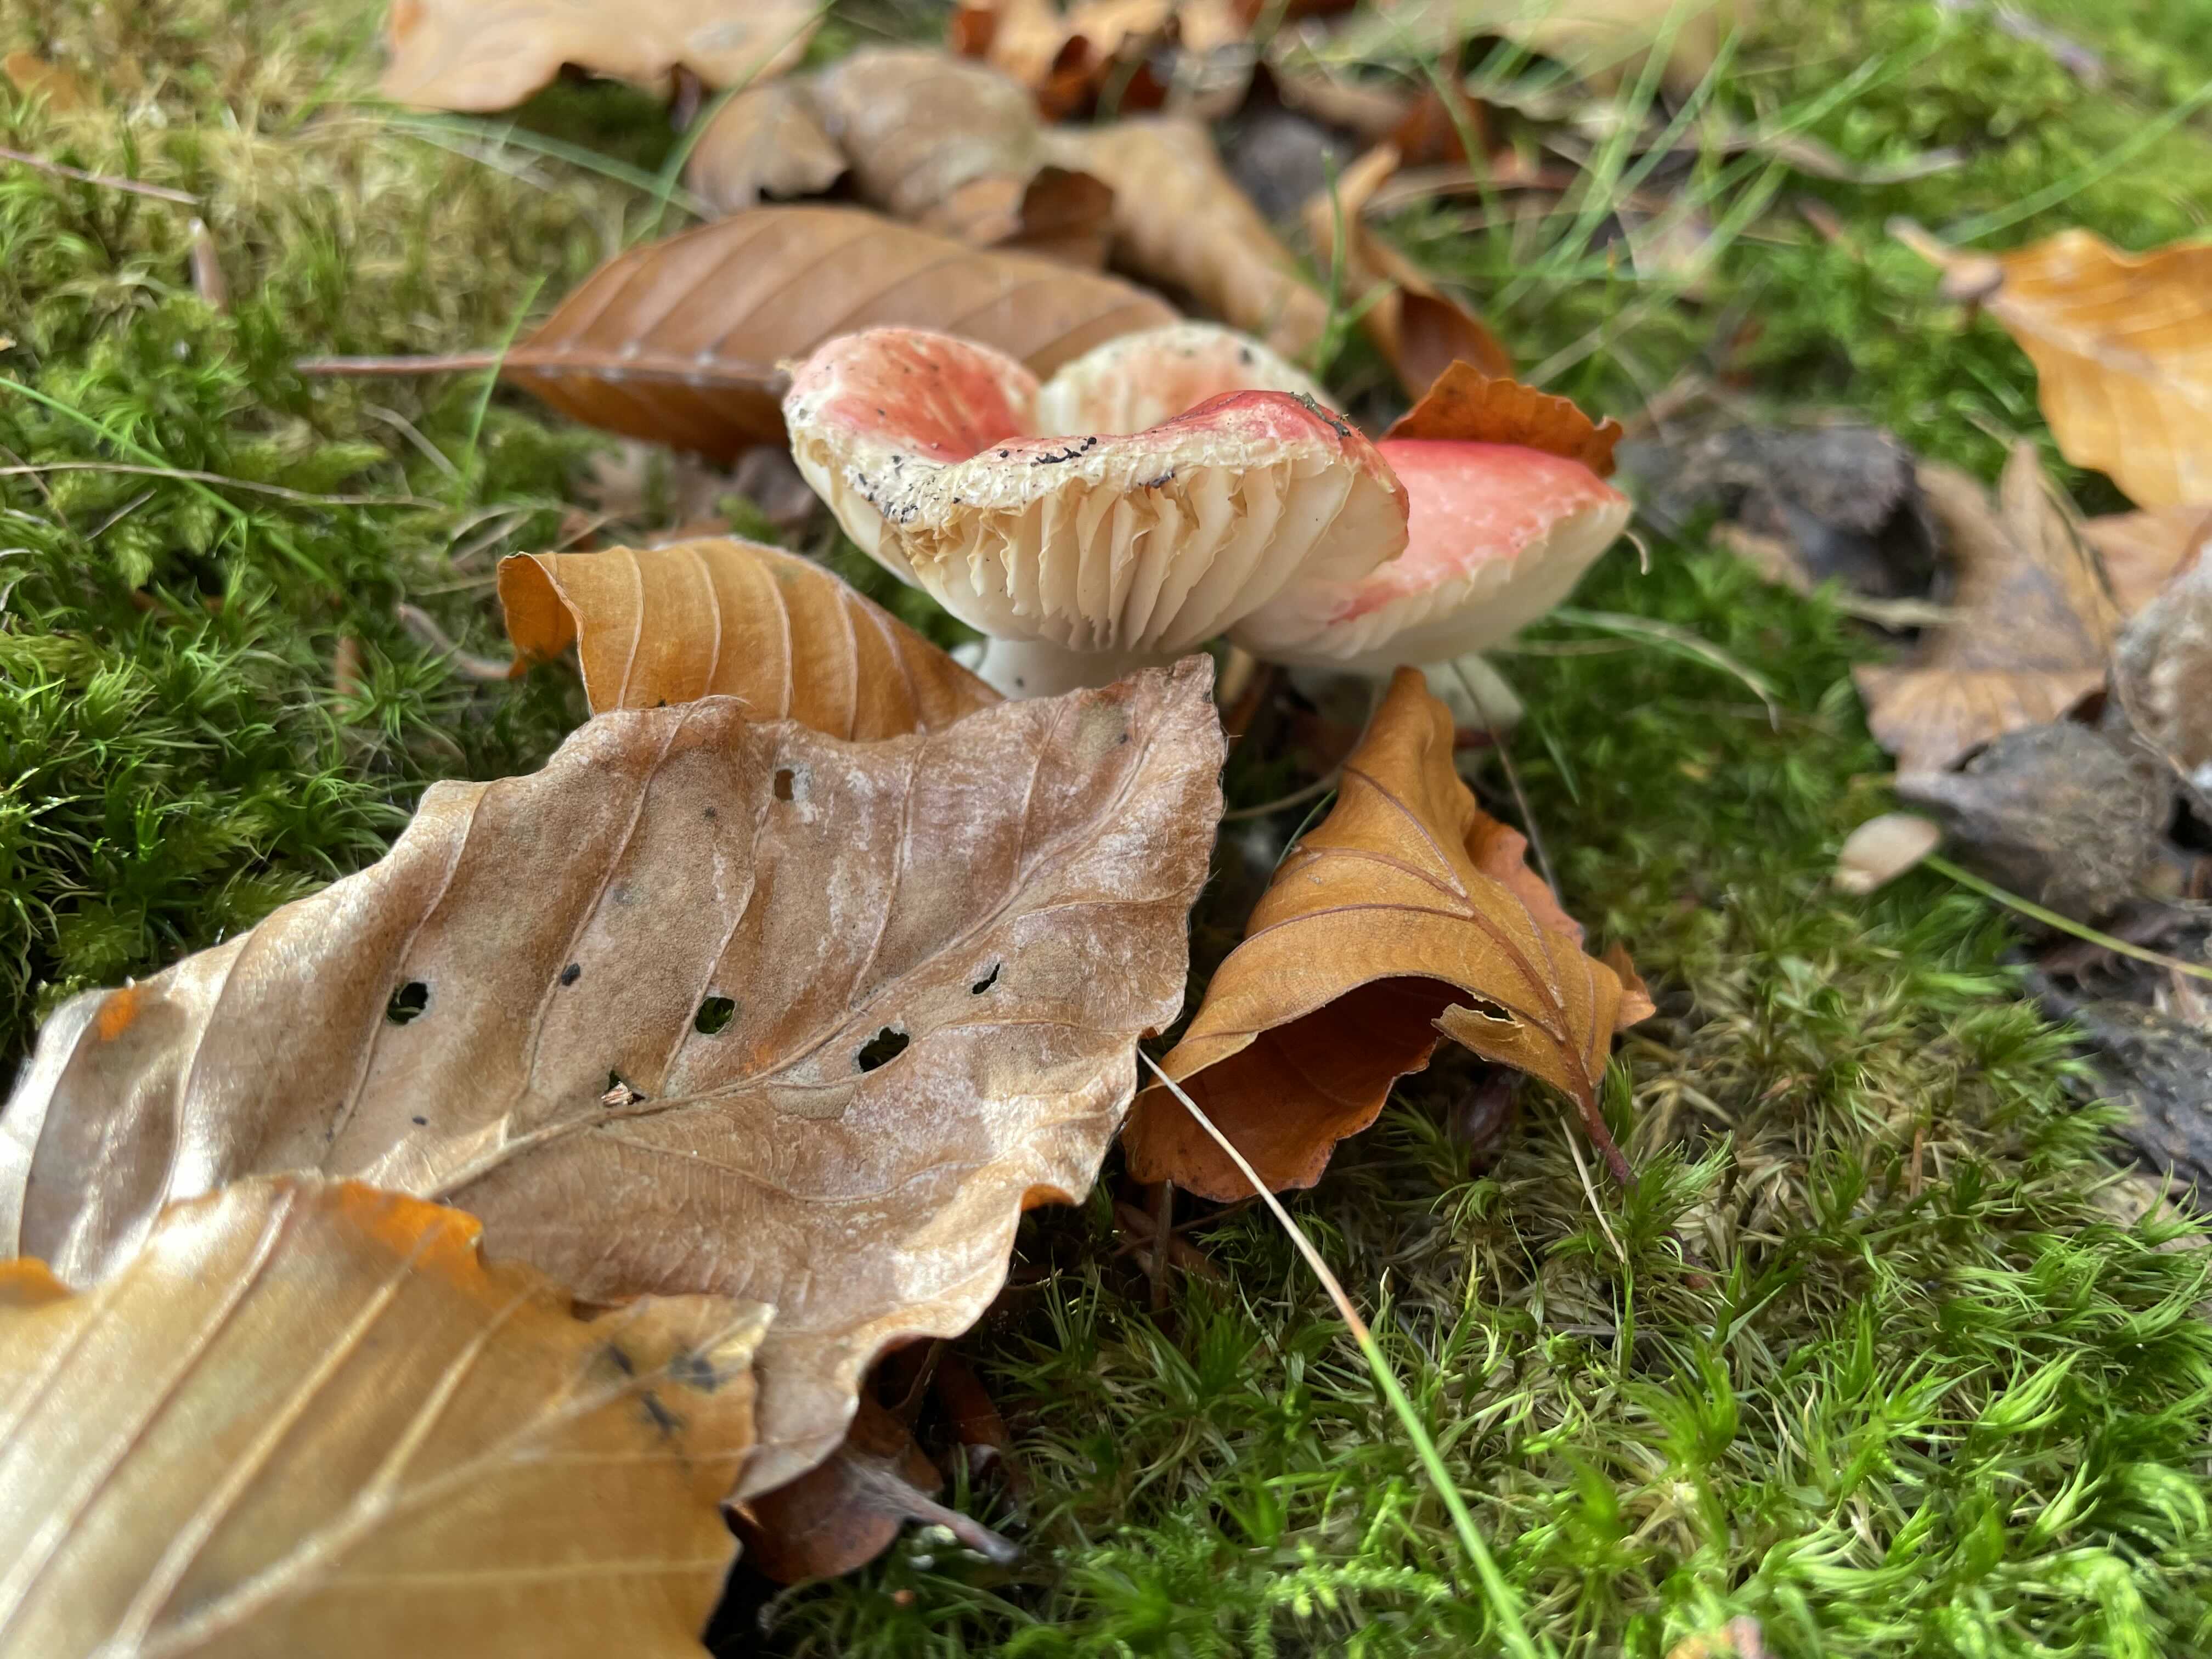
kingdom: Fungi
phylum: Basidiomycota
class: Agaricomycetes
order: Russulales
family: Russulaceae
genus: Russula
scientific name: Russula
